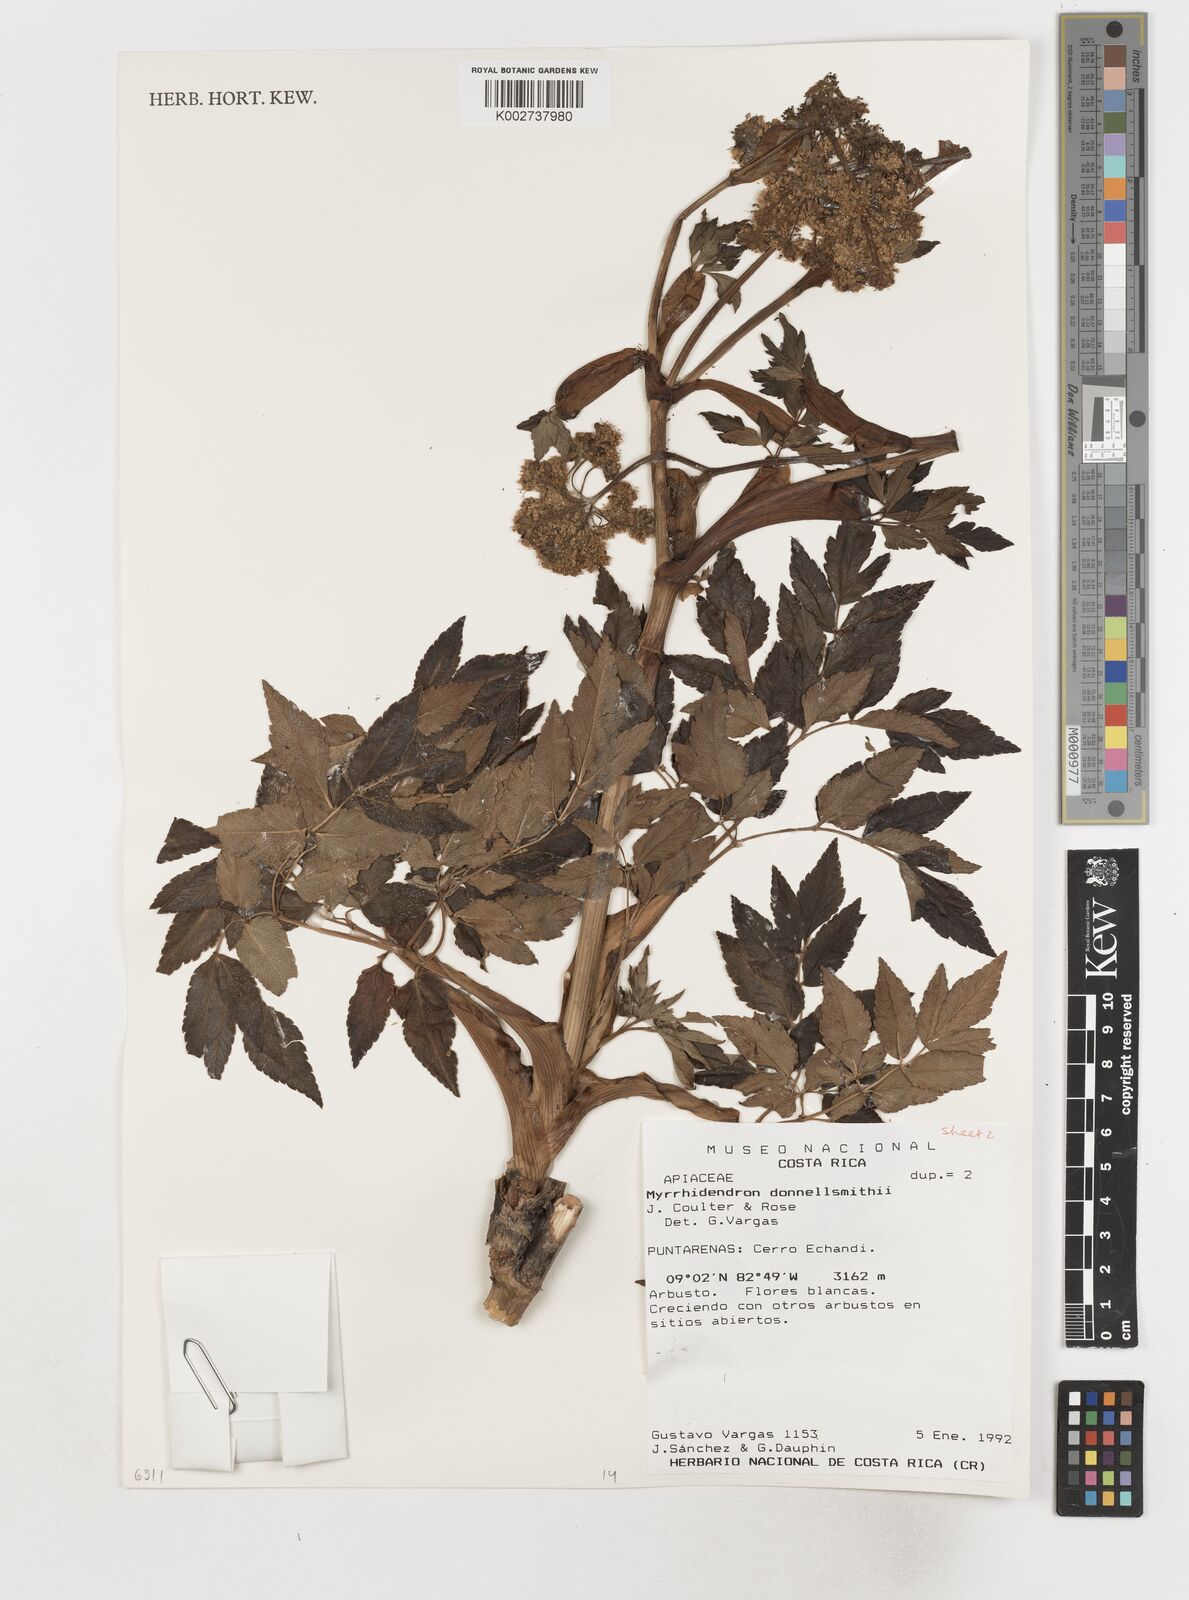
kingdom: Plantae
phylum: Tracheophyta
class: Magnoliopsida
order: Apiales
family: Apiaceae
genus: Myrrhidendron
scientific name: Myrrhidendron donnellsmithii
